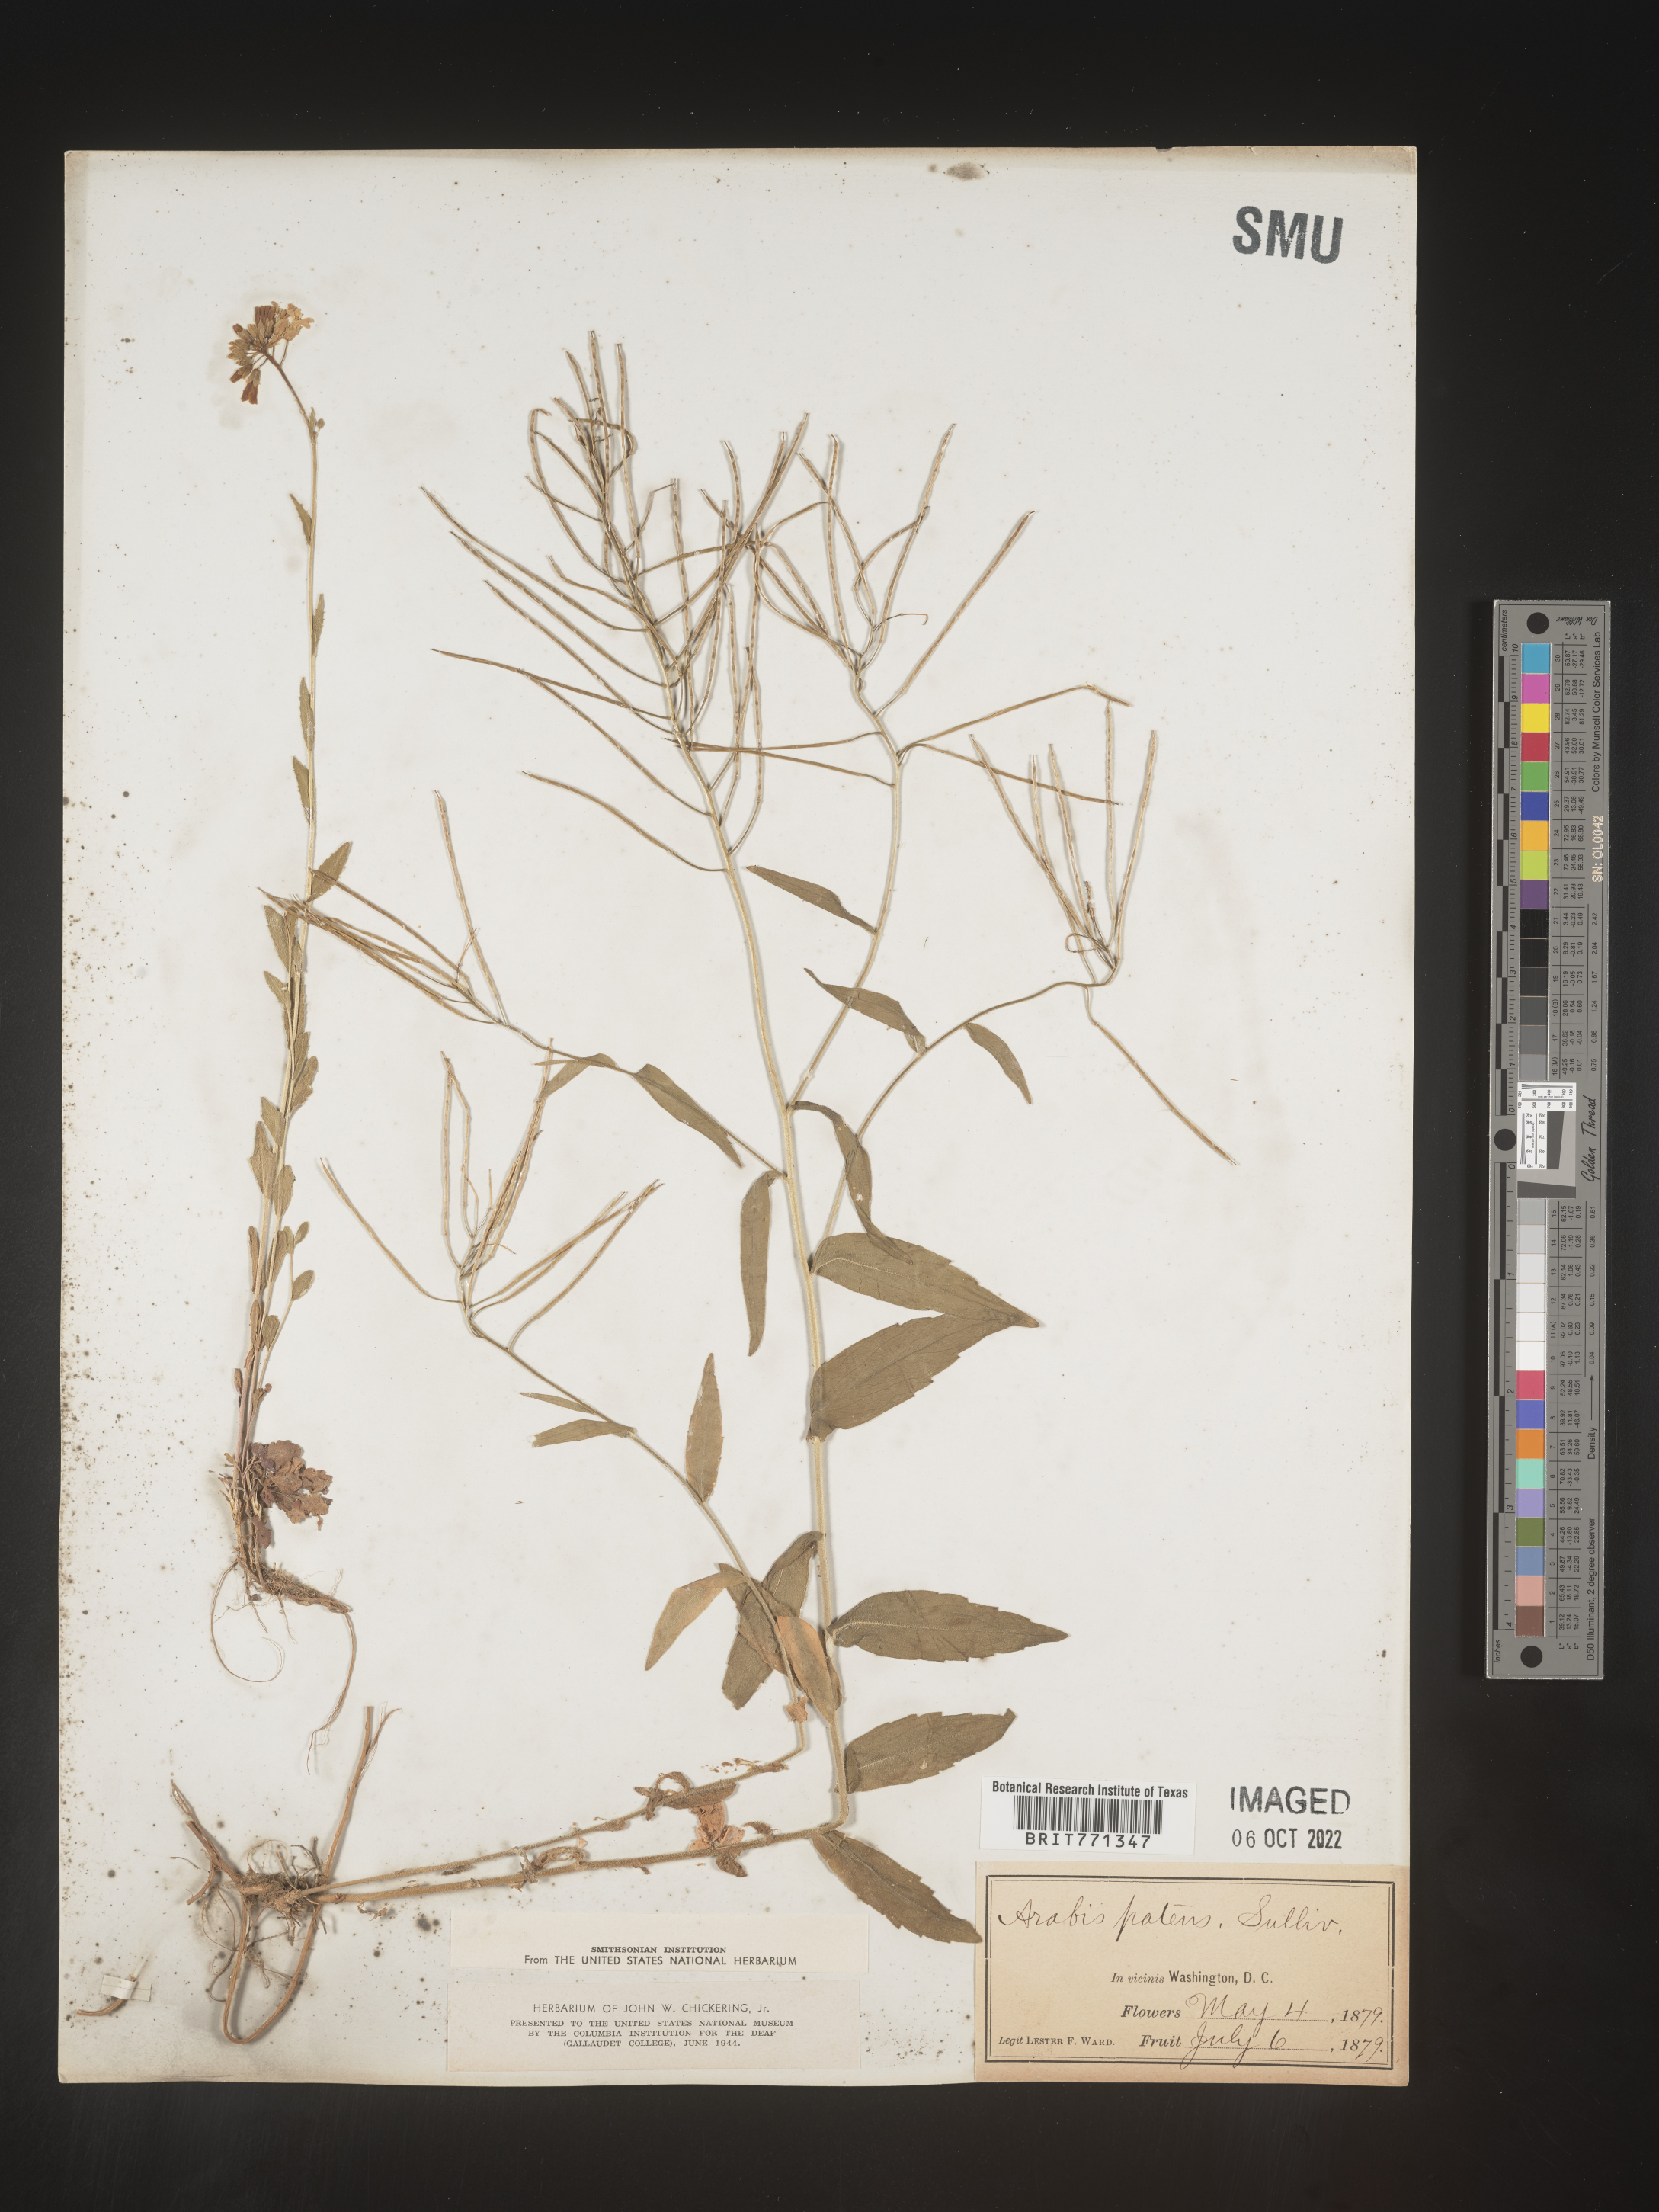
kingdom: Plantae
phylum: Tracheophyta
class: Magnoliopsida
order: Brassicales
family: Brassicaceae
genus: Arabis
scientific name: Arabis
